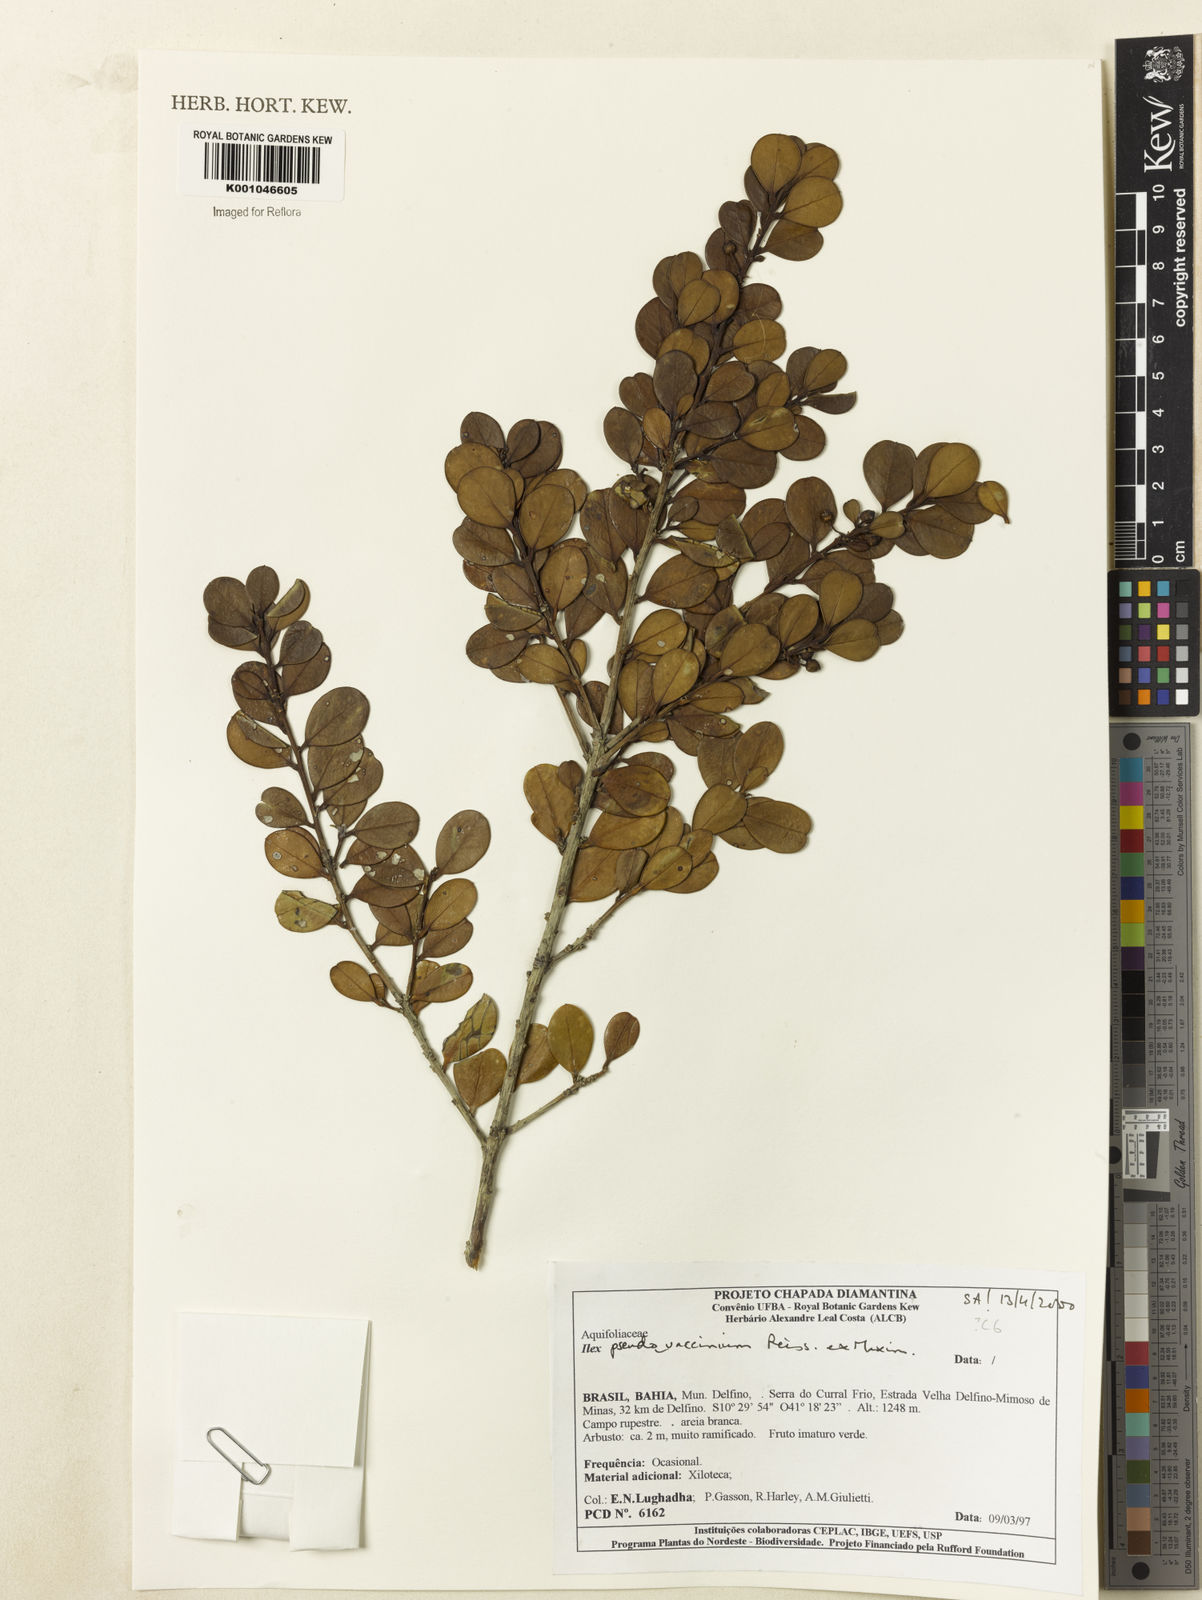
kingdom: Plantae
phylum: Tracheophyta
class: Magnoliopsida
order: Aquifoliales
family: Aquifoliaceae
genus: Ilex
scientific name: Ilex pseudovaccinium
